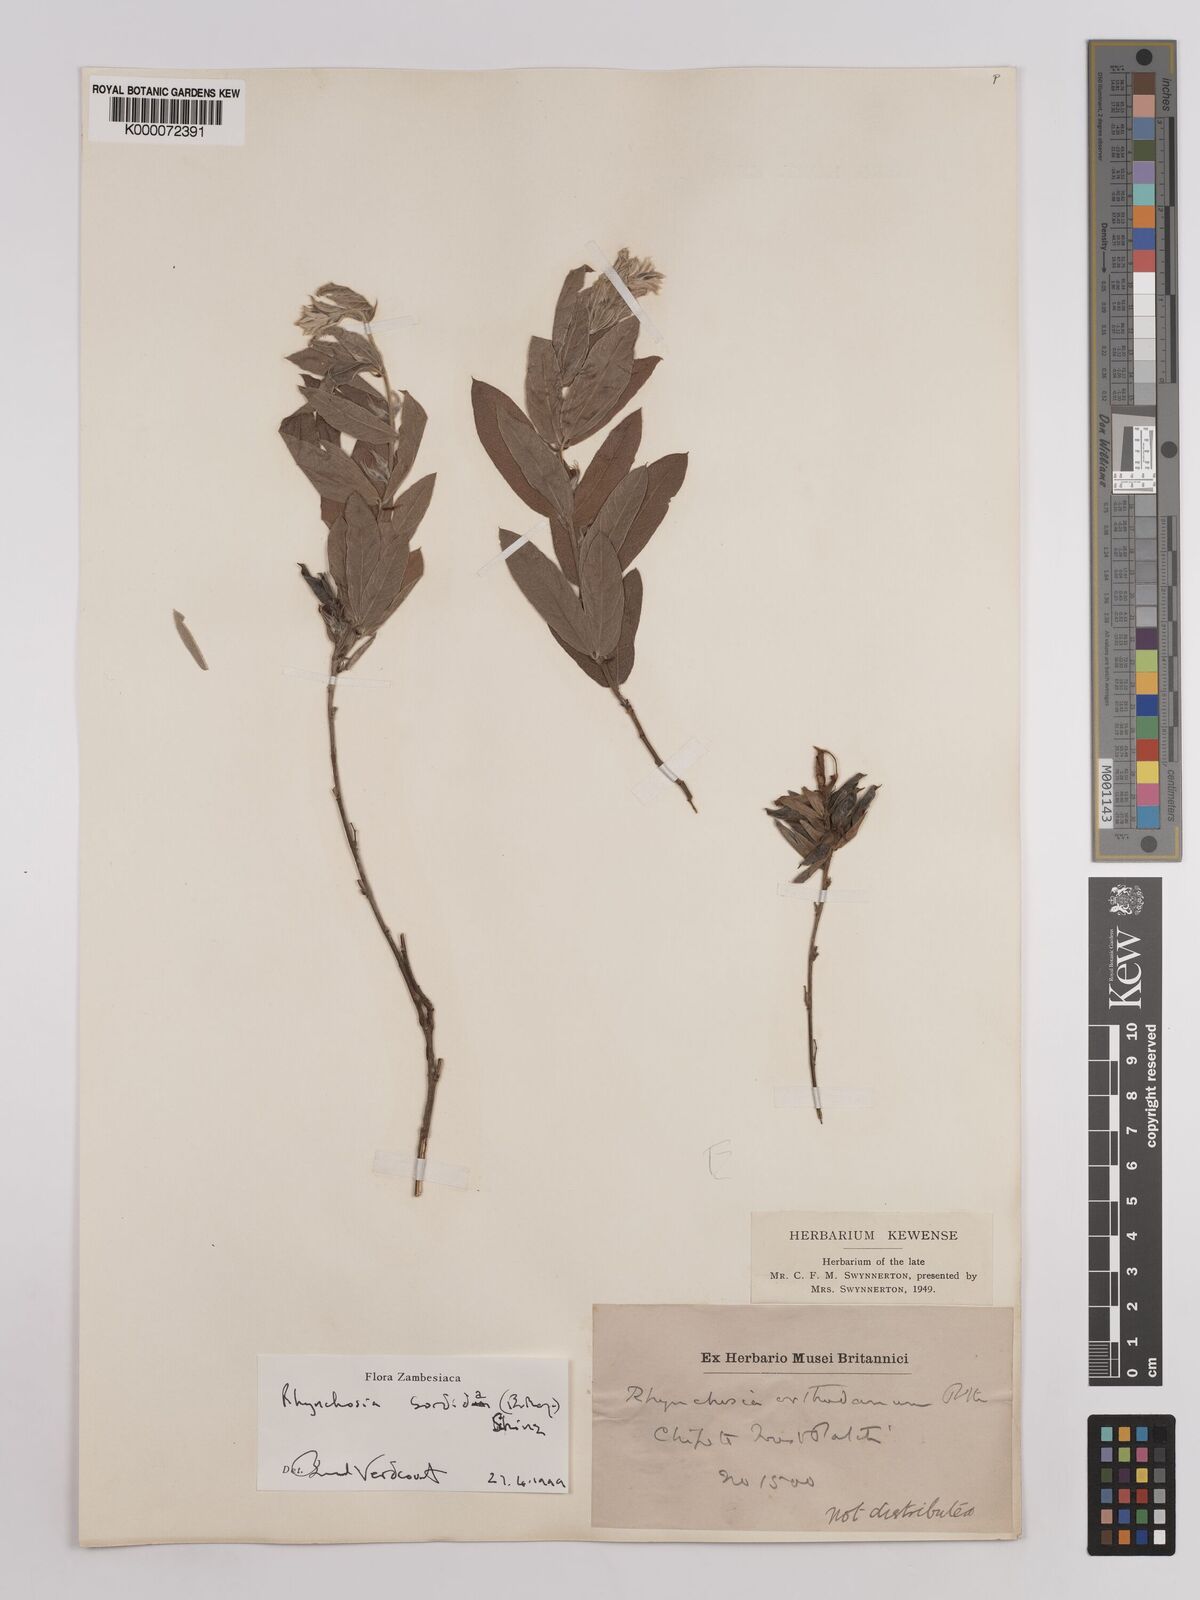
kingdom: Plantae
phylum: Tracheophyta
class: Magnoliopsida
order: Fabales
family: Fabaceae
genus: Rhynchosia
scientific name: Rhynchosia sordida
